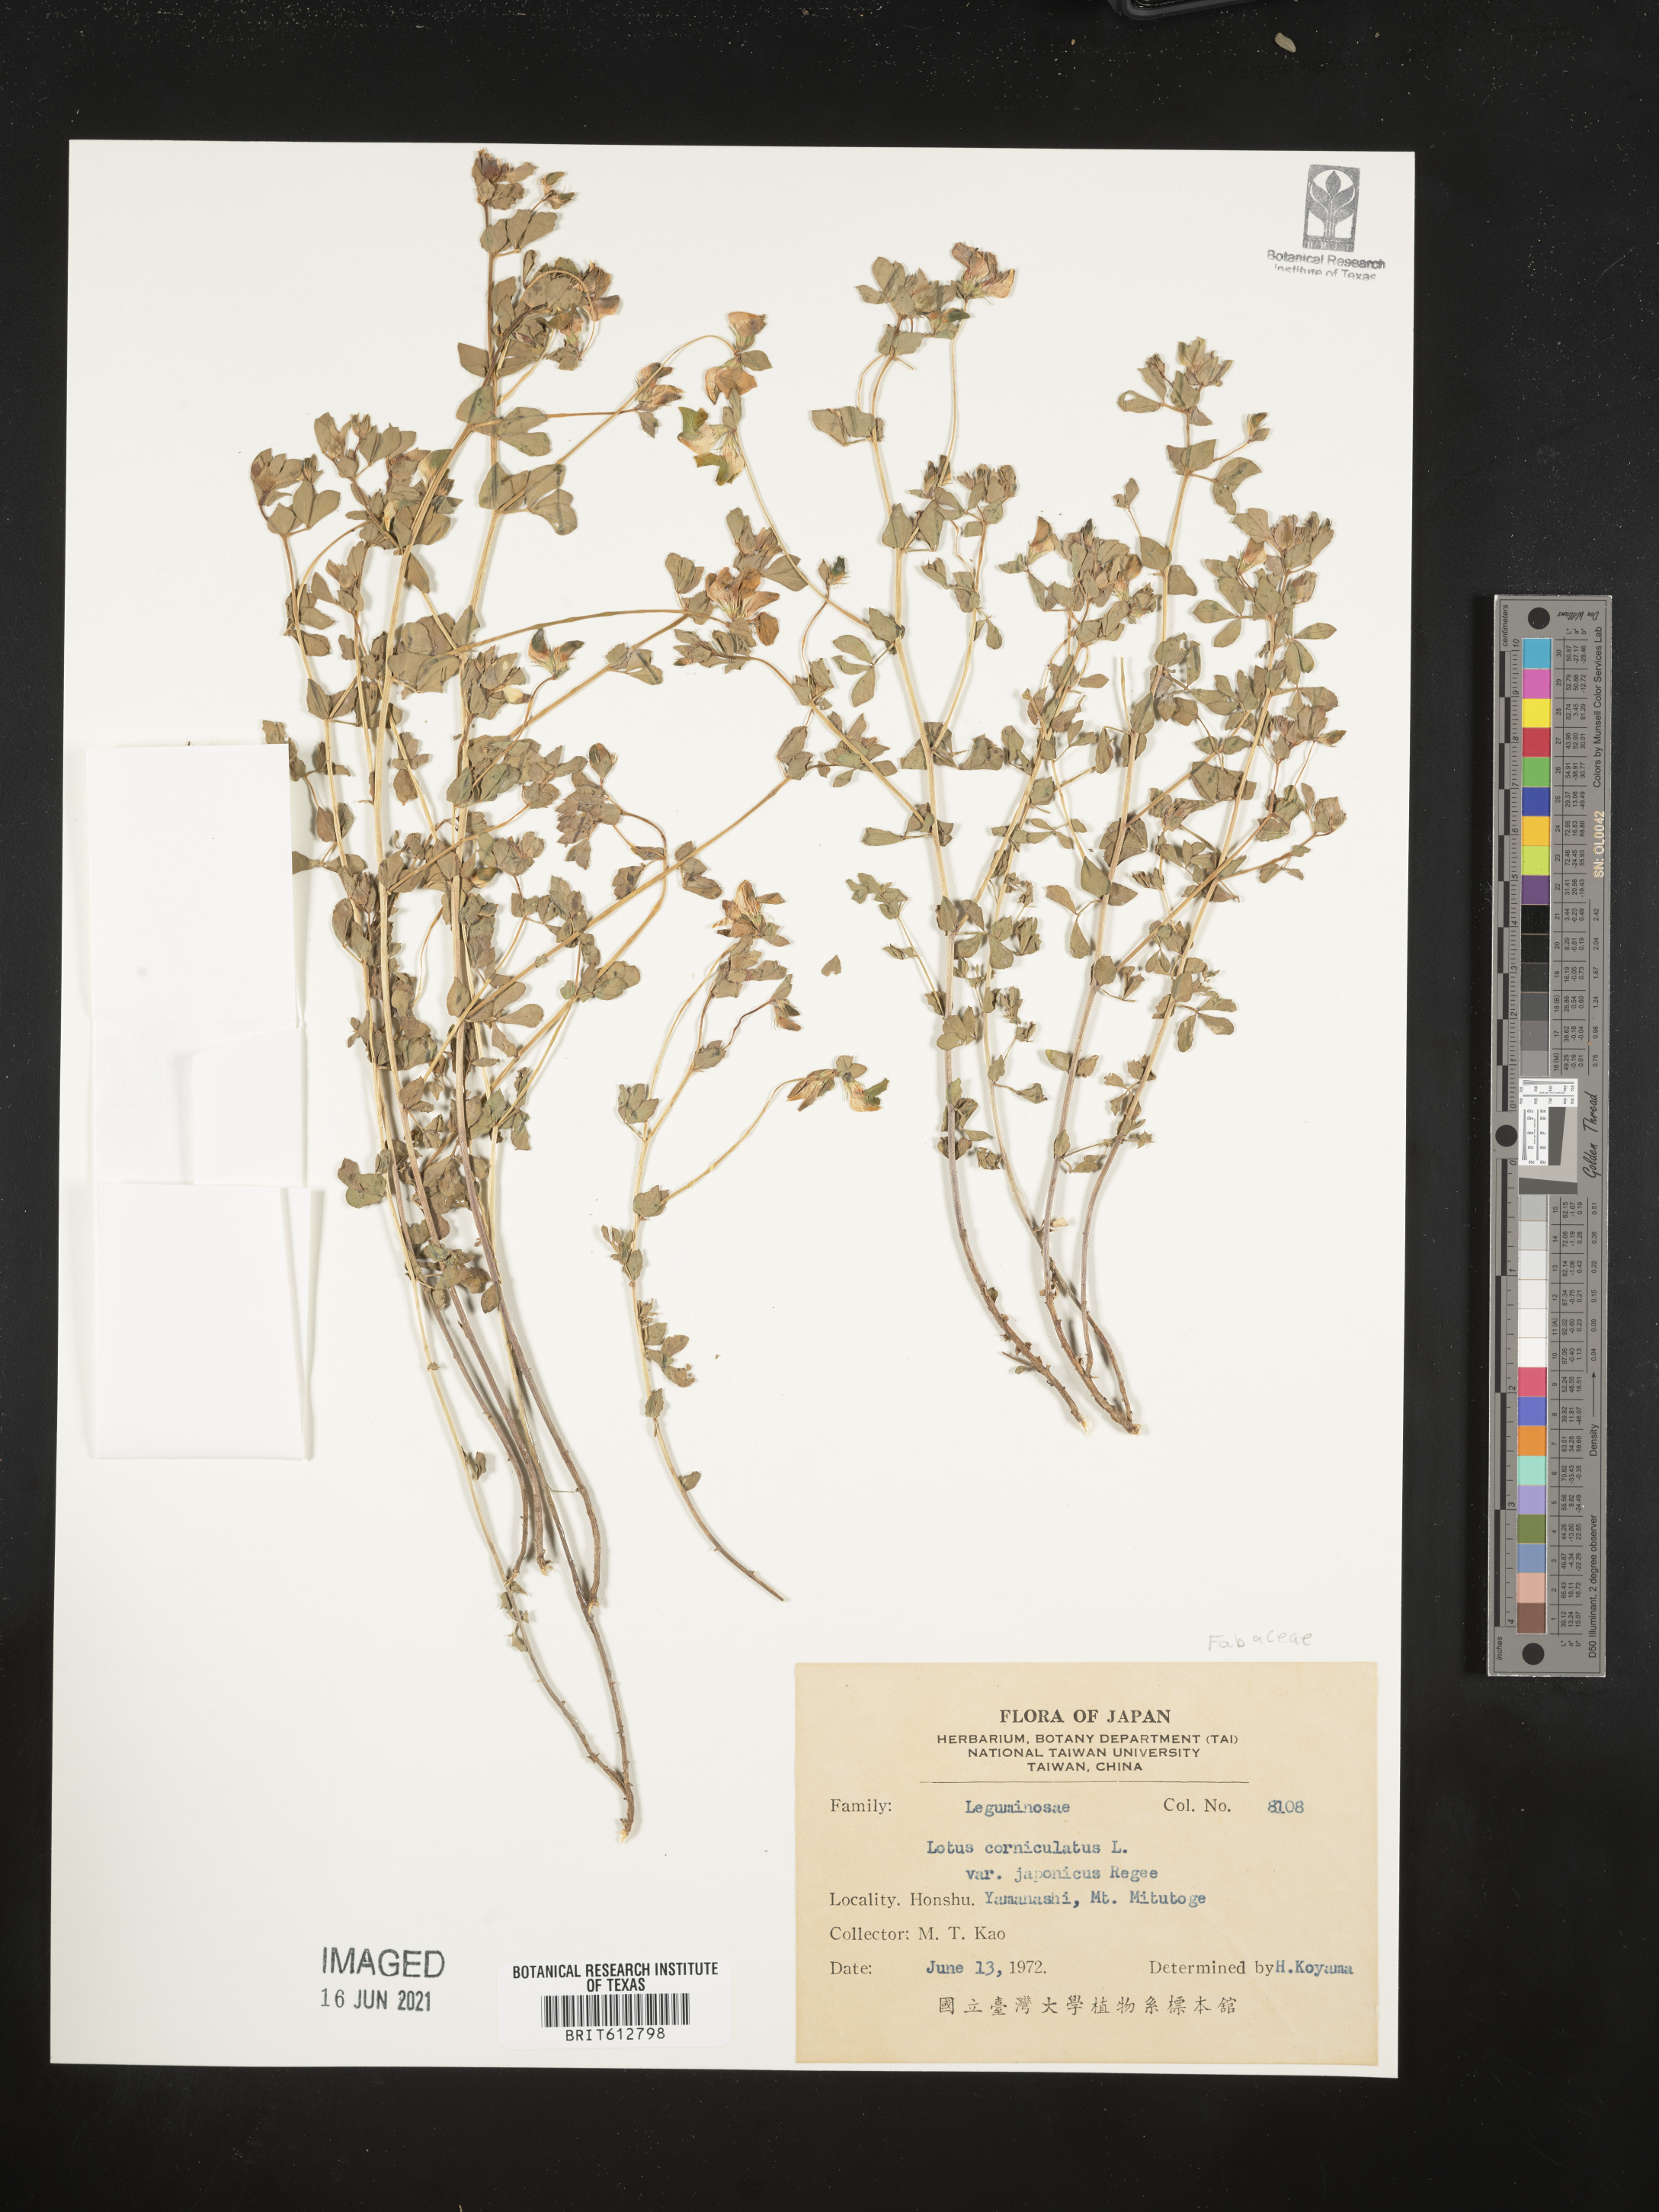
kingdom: Plantae
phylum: Tracheophyta
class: Magnoliopsida
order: Fabales
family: Fabaceae
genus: Lotus
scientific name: Lotus japonicus
